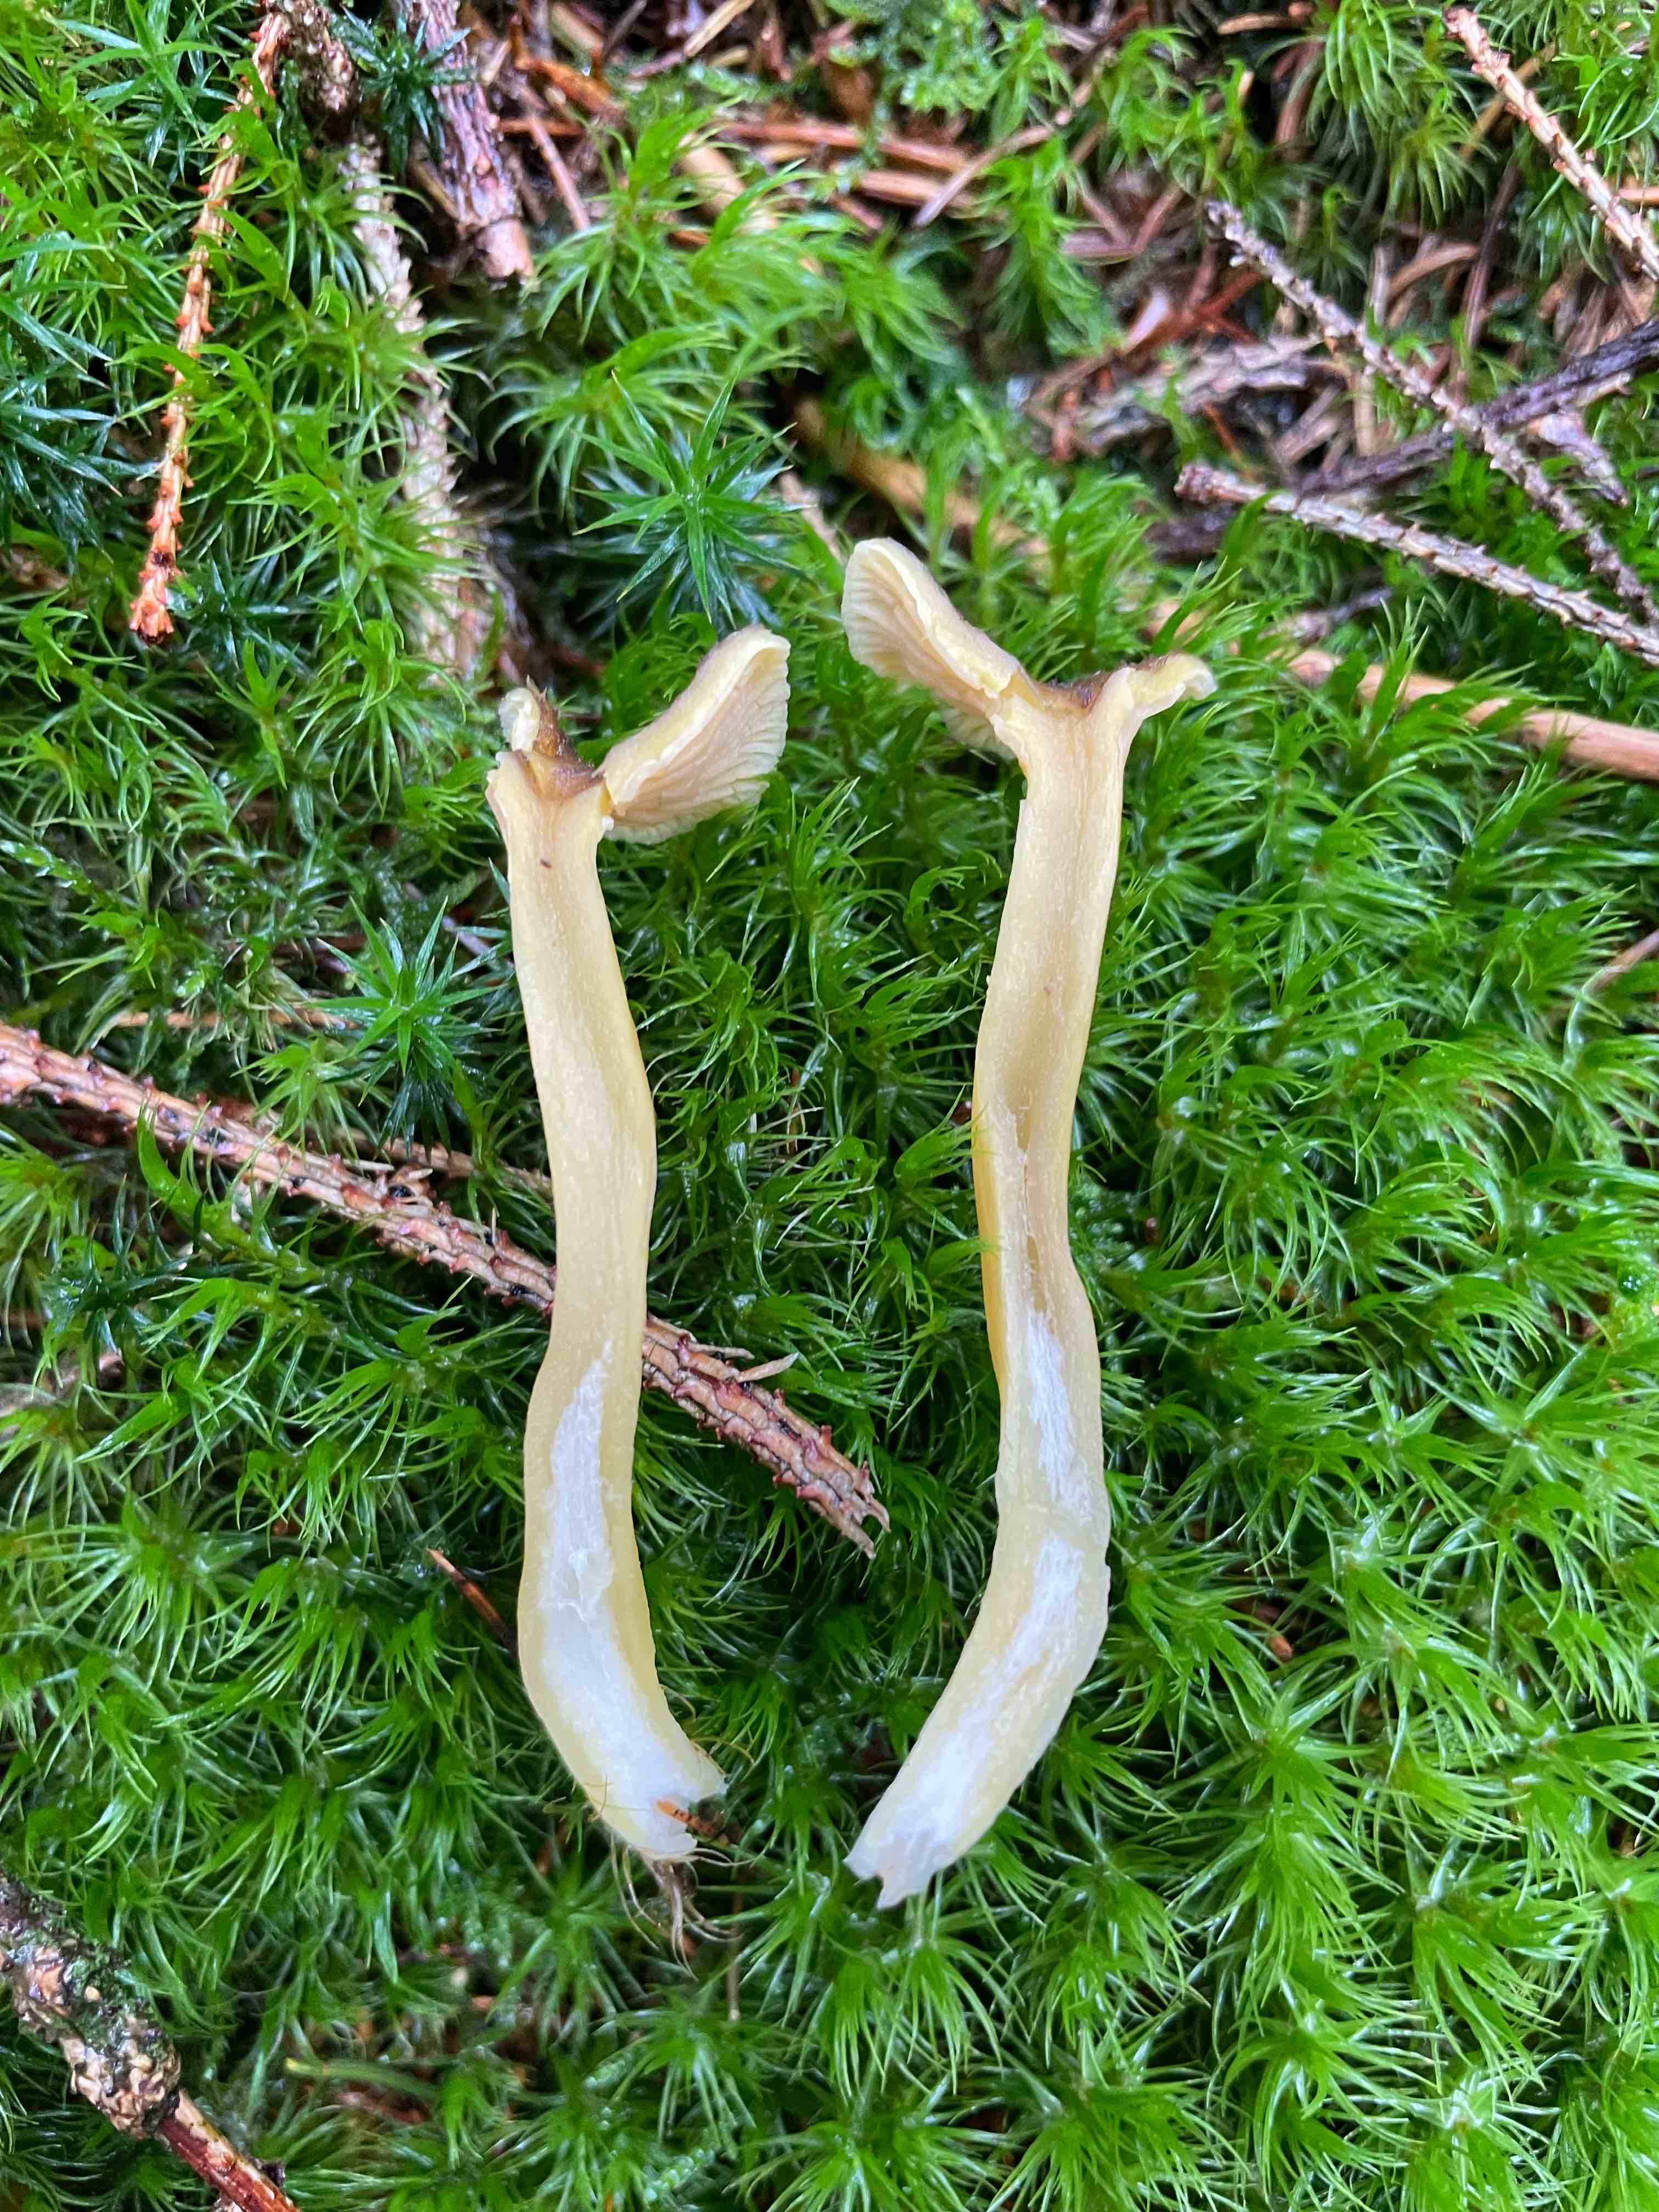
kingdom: Fungi
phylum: Basidiomycota
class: Agaricomycetes
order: Cantharellales
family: Hydnaceae
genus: Craterellus
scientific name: Craterellus tubaeformis
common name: tragt-kantarel
